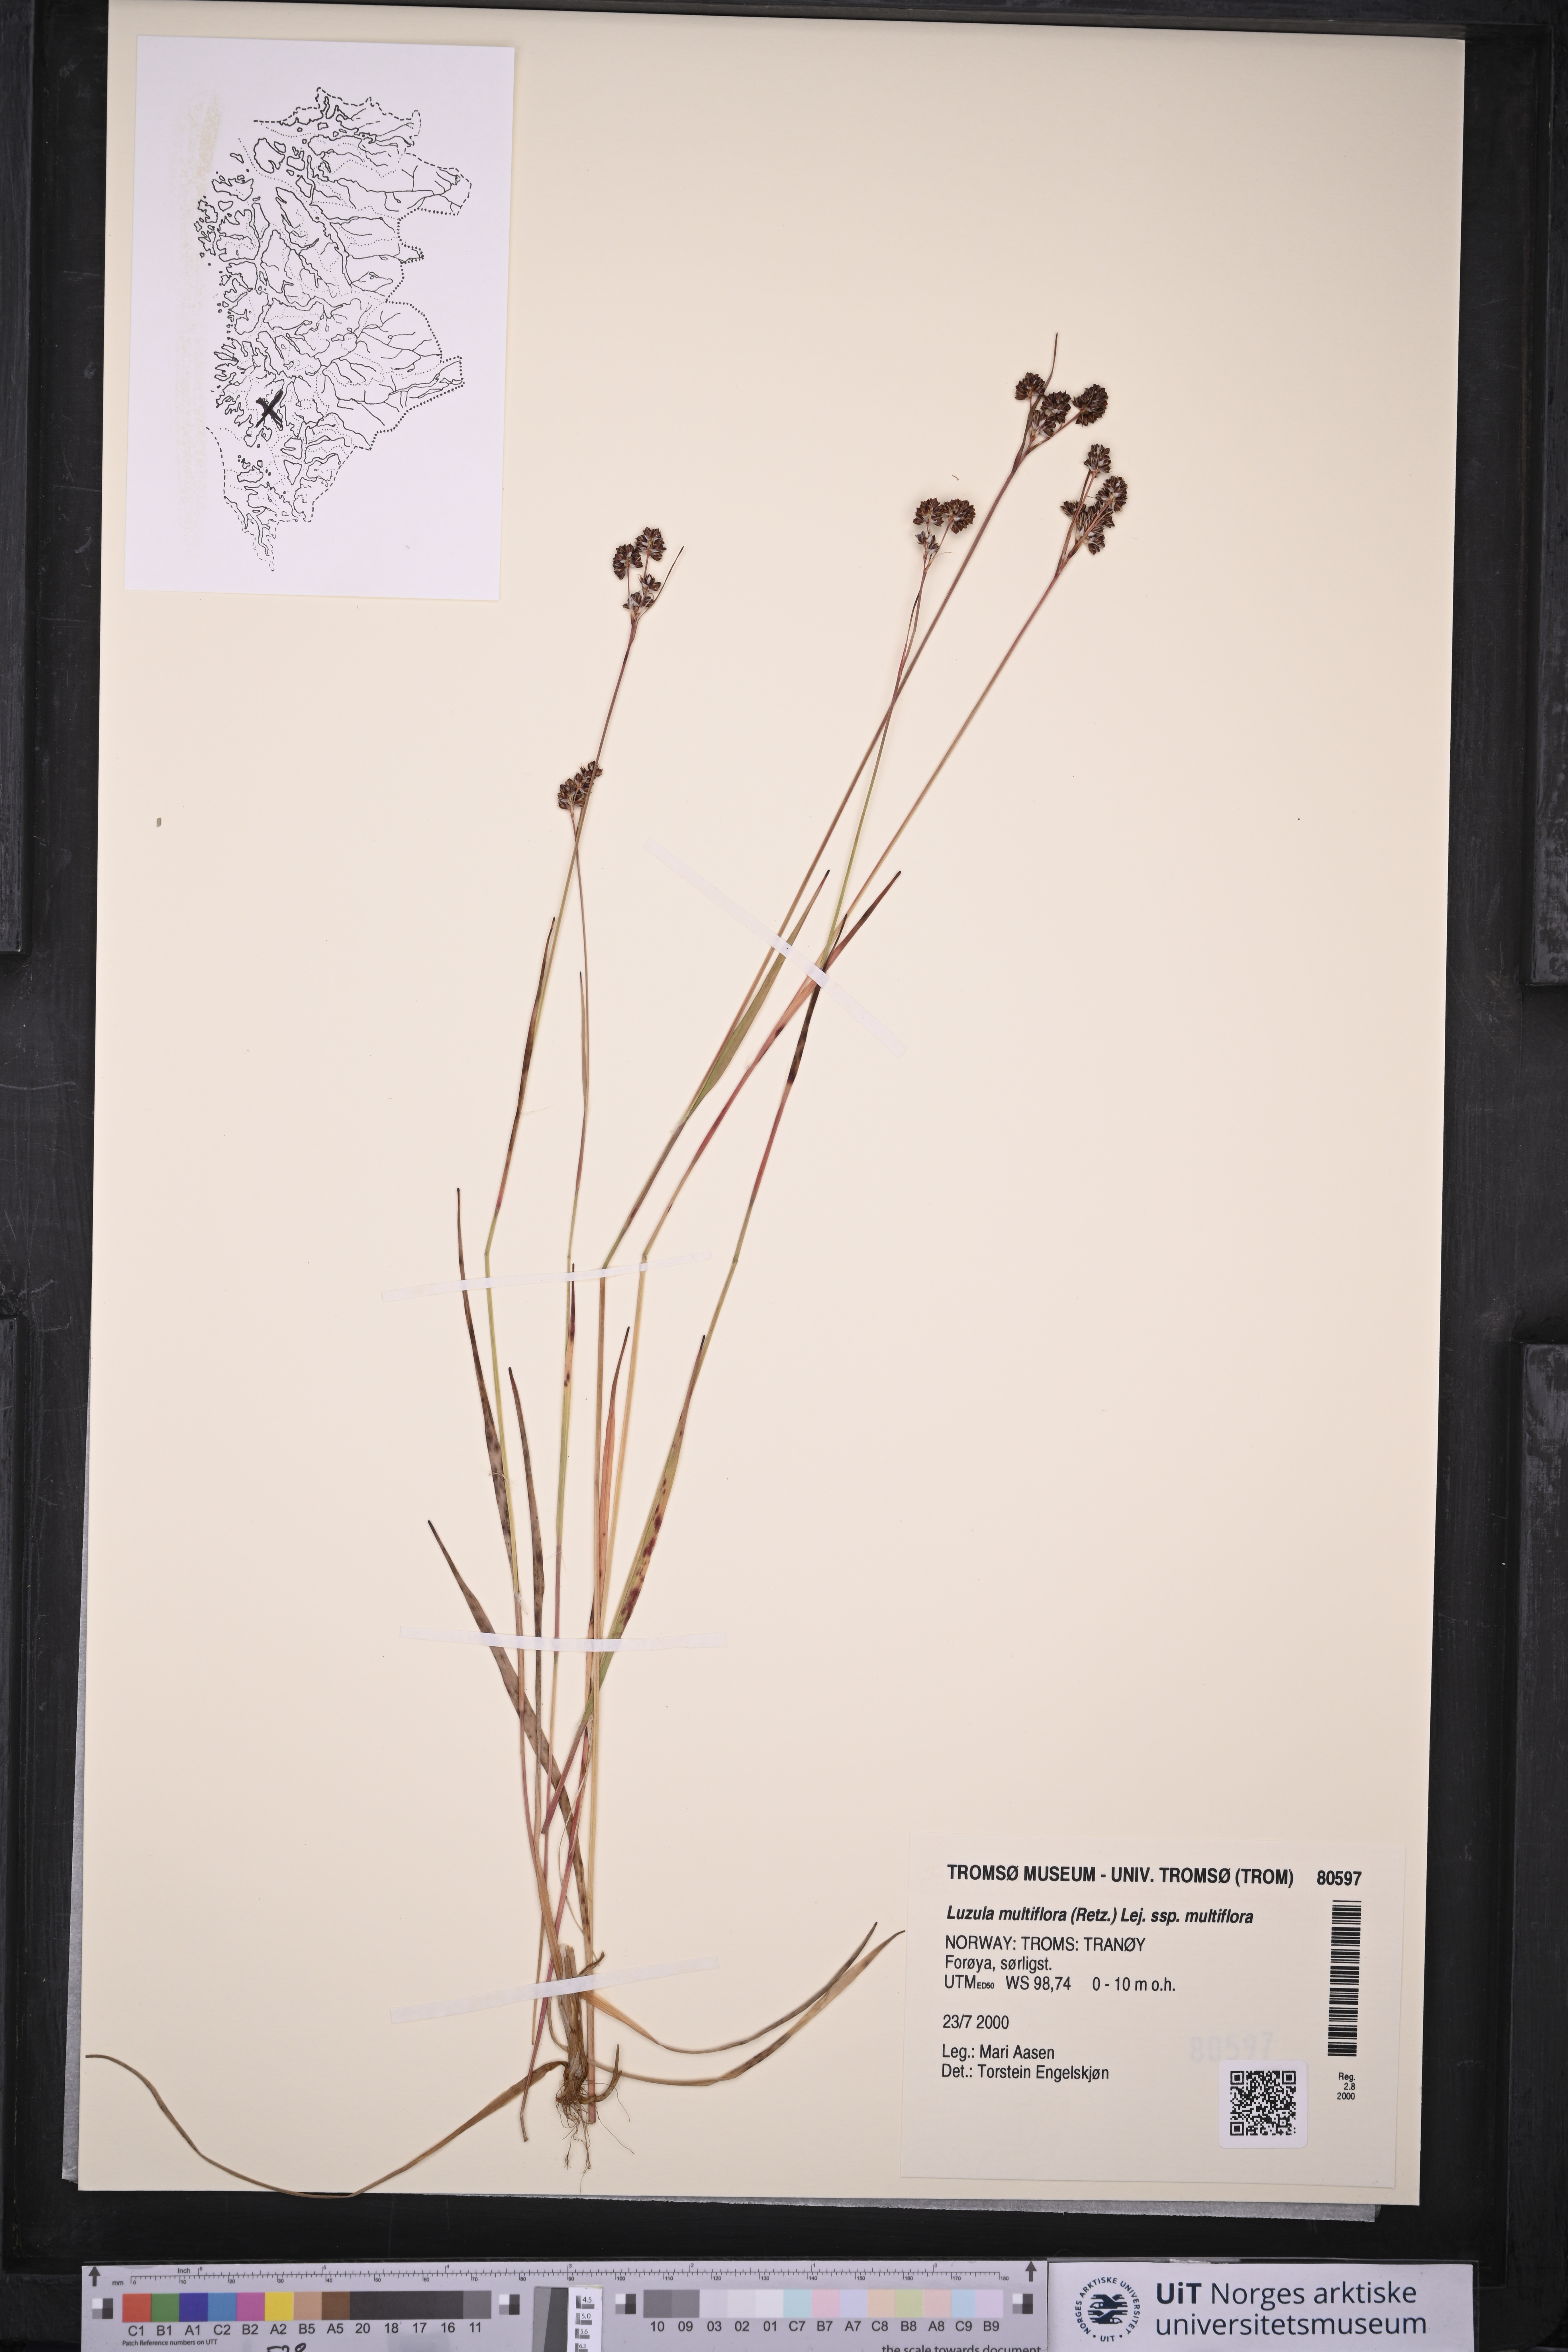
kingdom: Plantae
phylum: Tracheophyta
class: Liliopsida
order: Poales
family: Juncaceae
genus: Luzula
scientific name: Luzula multiflora
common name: Heath wood-rush
